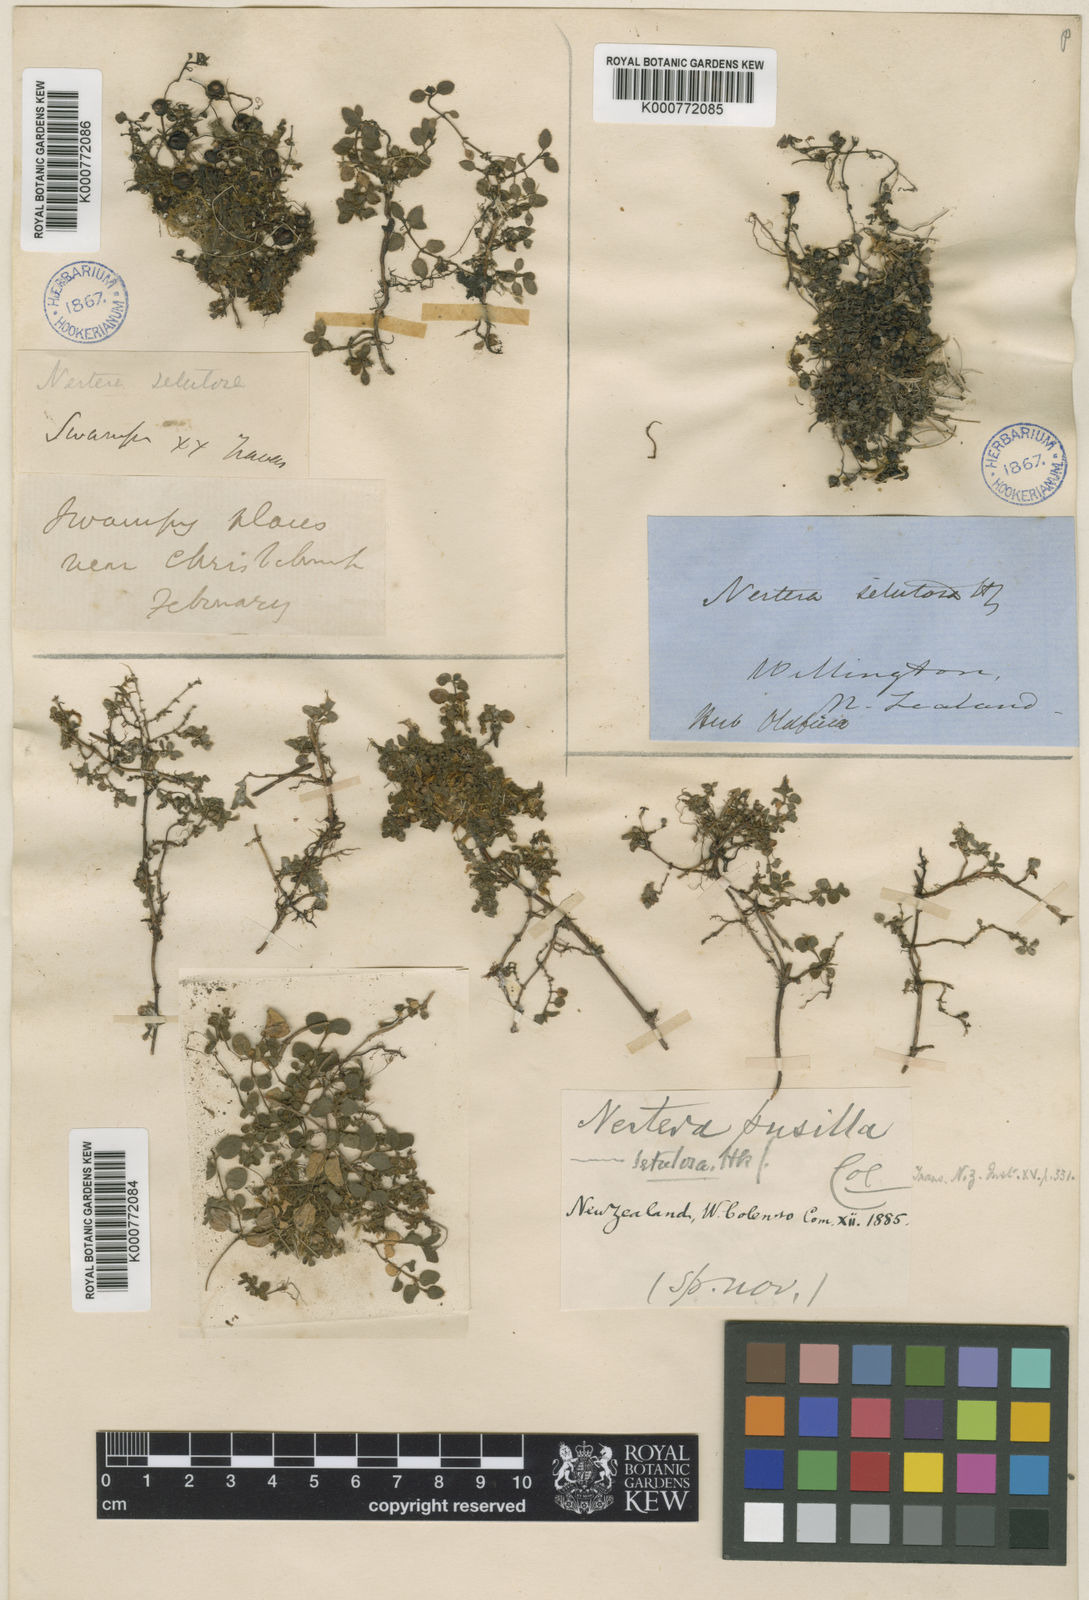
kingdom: Plantae
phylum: Tracheophyta
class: Magnoliopsida
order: Gentianales
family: Rubiaceae
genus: Leptostigma
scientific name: Leptostigma setulosum
